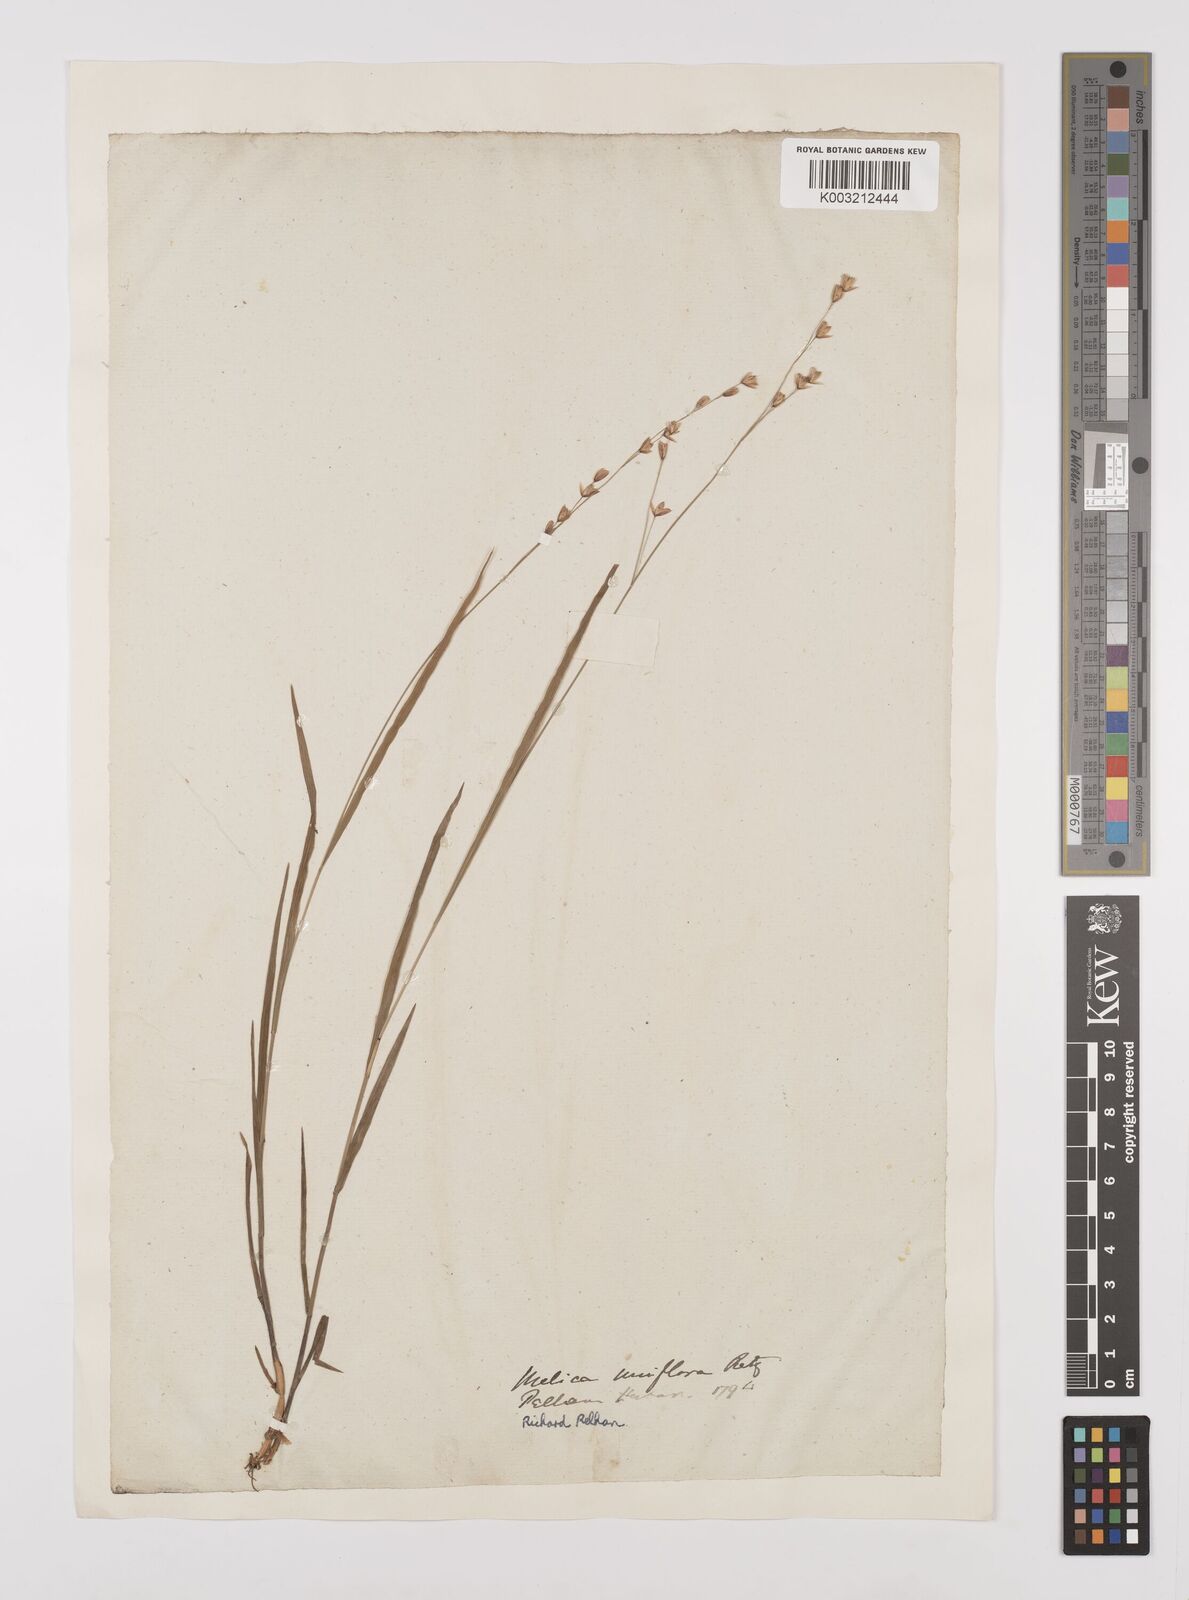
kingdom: Plantae
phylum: Tracheophyta
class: Liliopsida
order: Poales
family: Poaceae
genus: Melica
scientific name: Melica uniflora
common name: Wood melick
